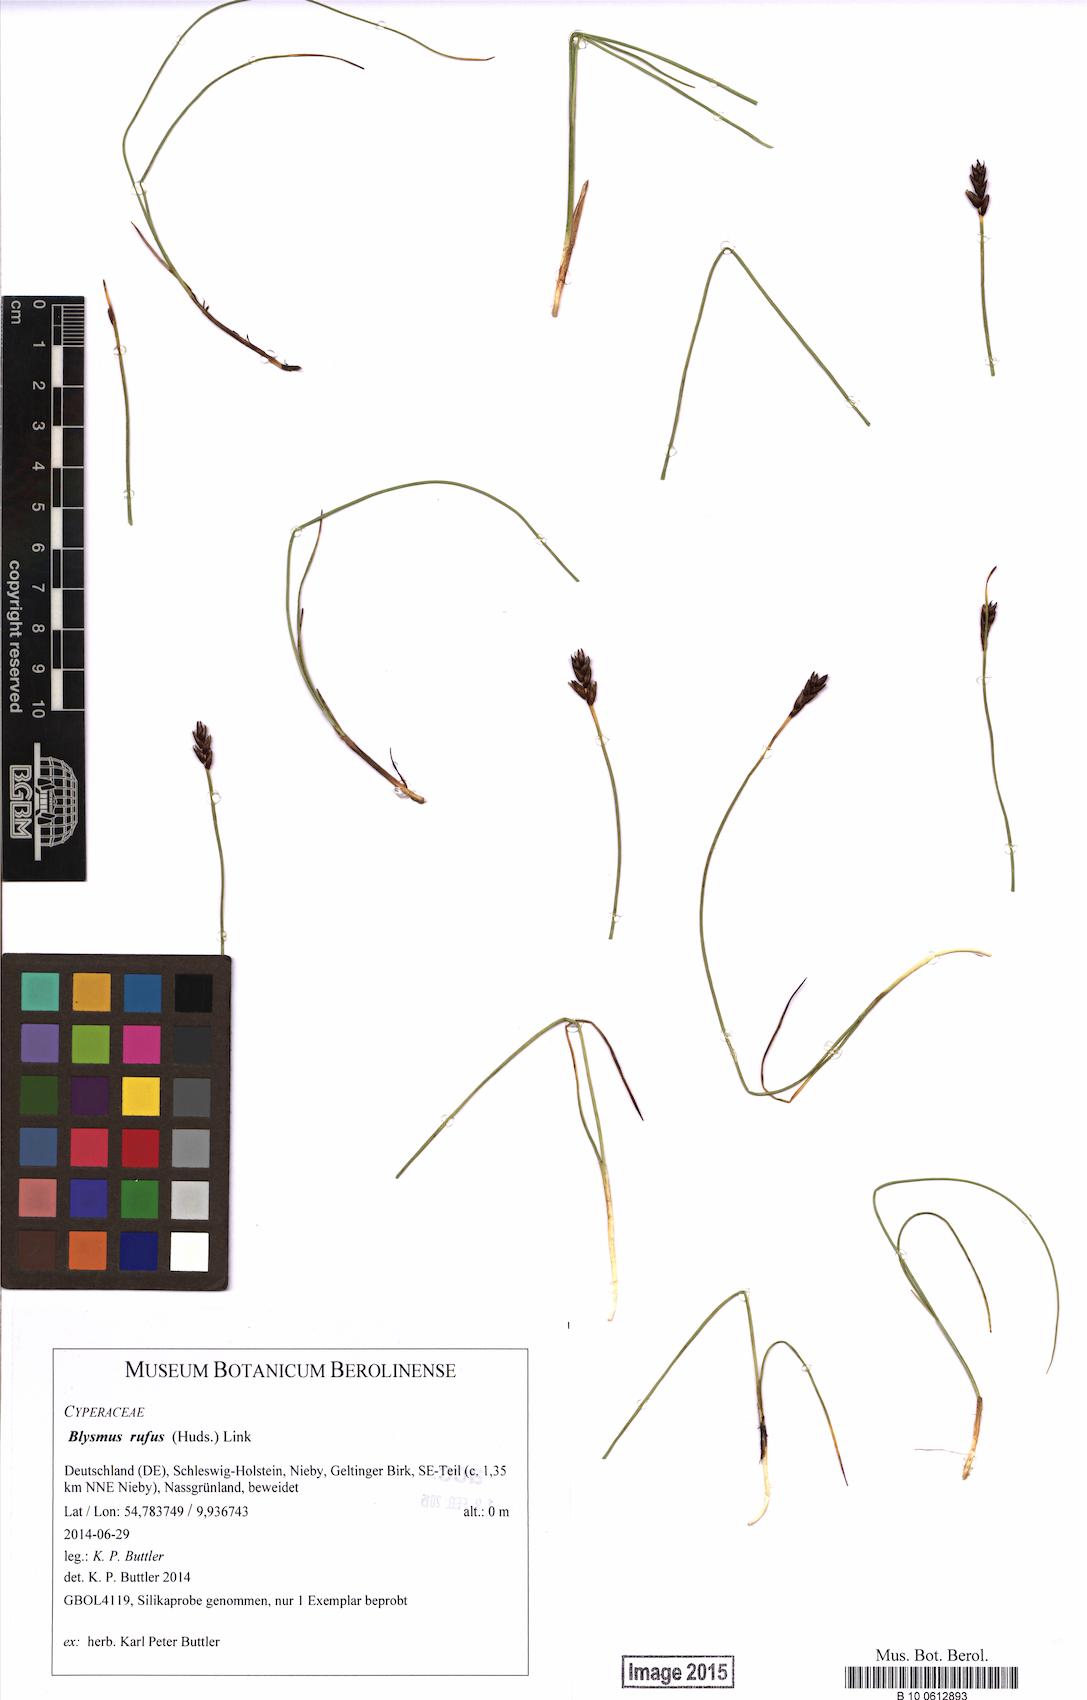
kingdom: Plantae
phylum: Tracheophyta
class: Liliopsida
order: Poales
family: Cyperaceae
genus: Blysmus
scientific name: Blysmus rufus
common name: Saltmarsh flat-sedge
